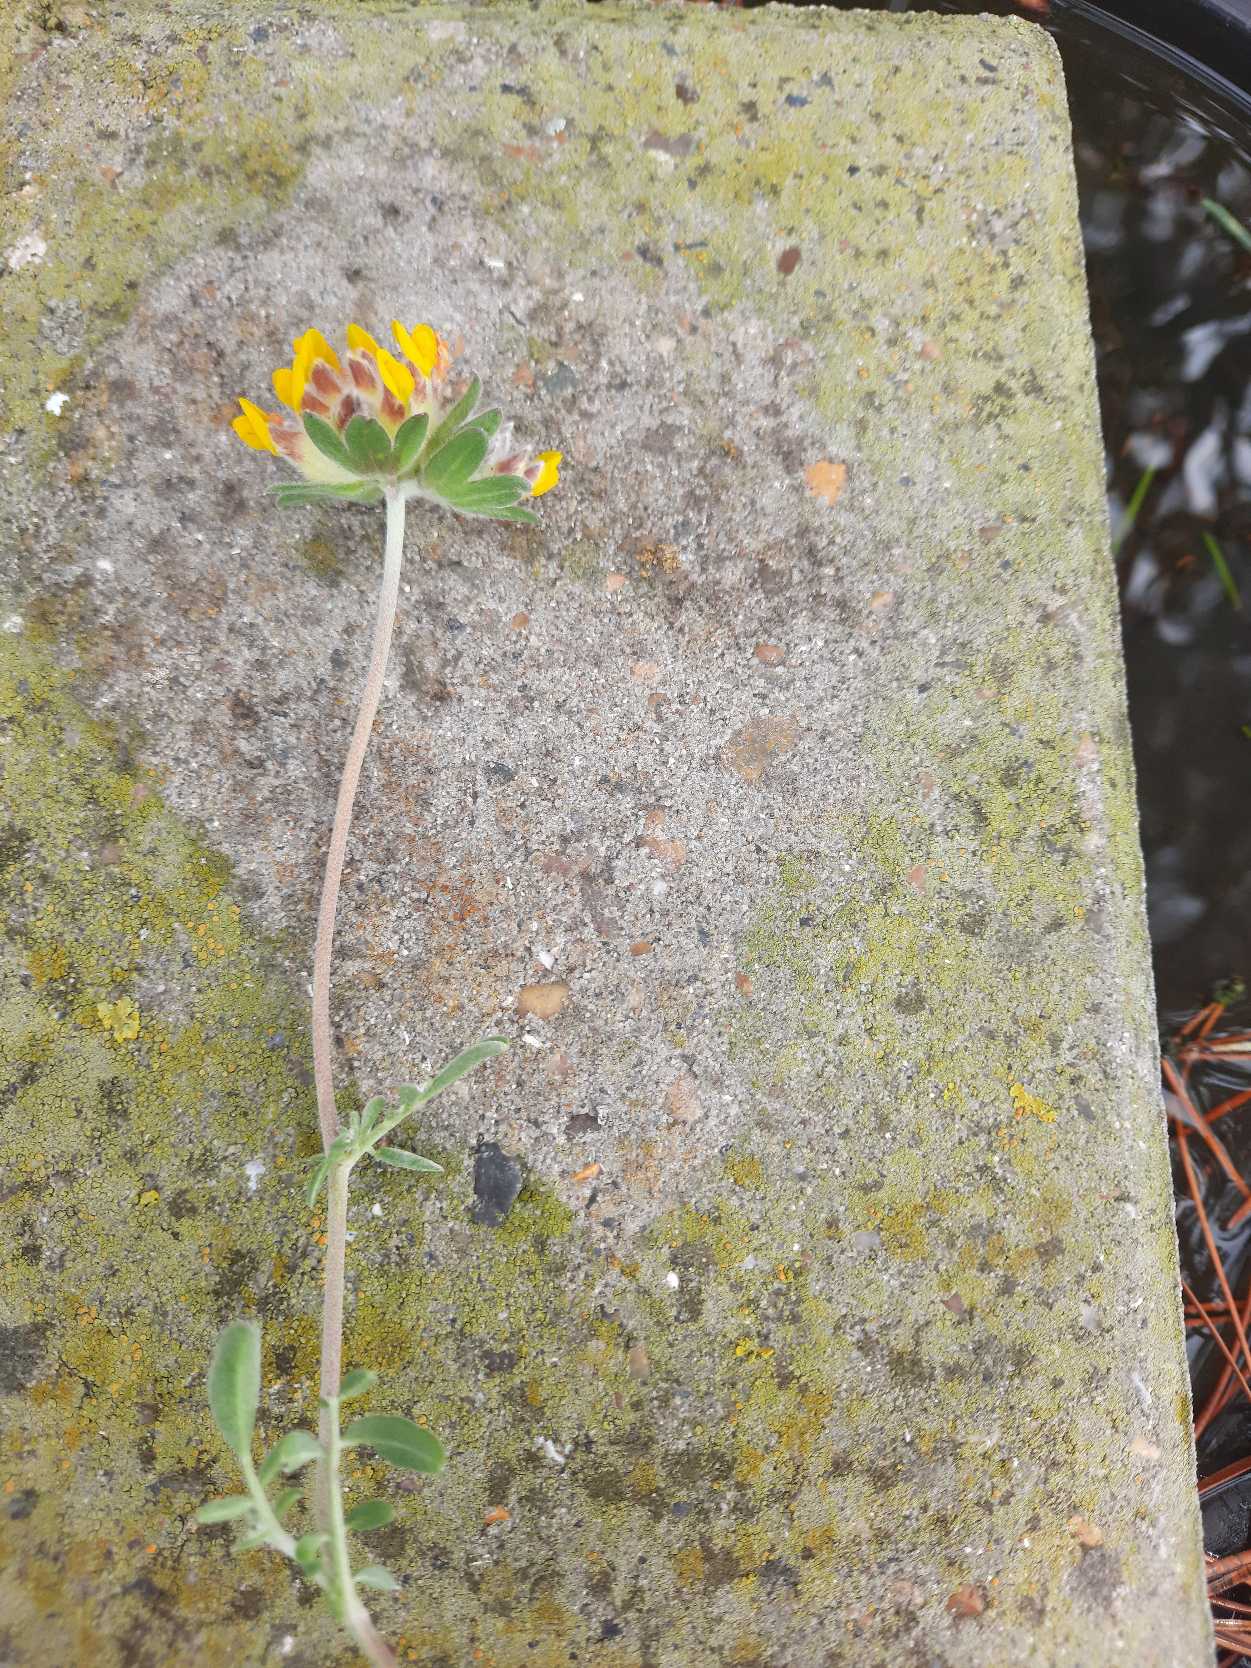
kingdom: Plantae
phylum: Tracheophyta
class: Magnoliopsida
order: Fabales
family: Fabaceae
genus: Anthyllis
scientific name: Anthyllis vulneraria
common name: Rundbælg
